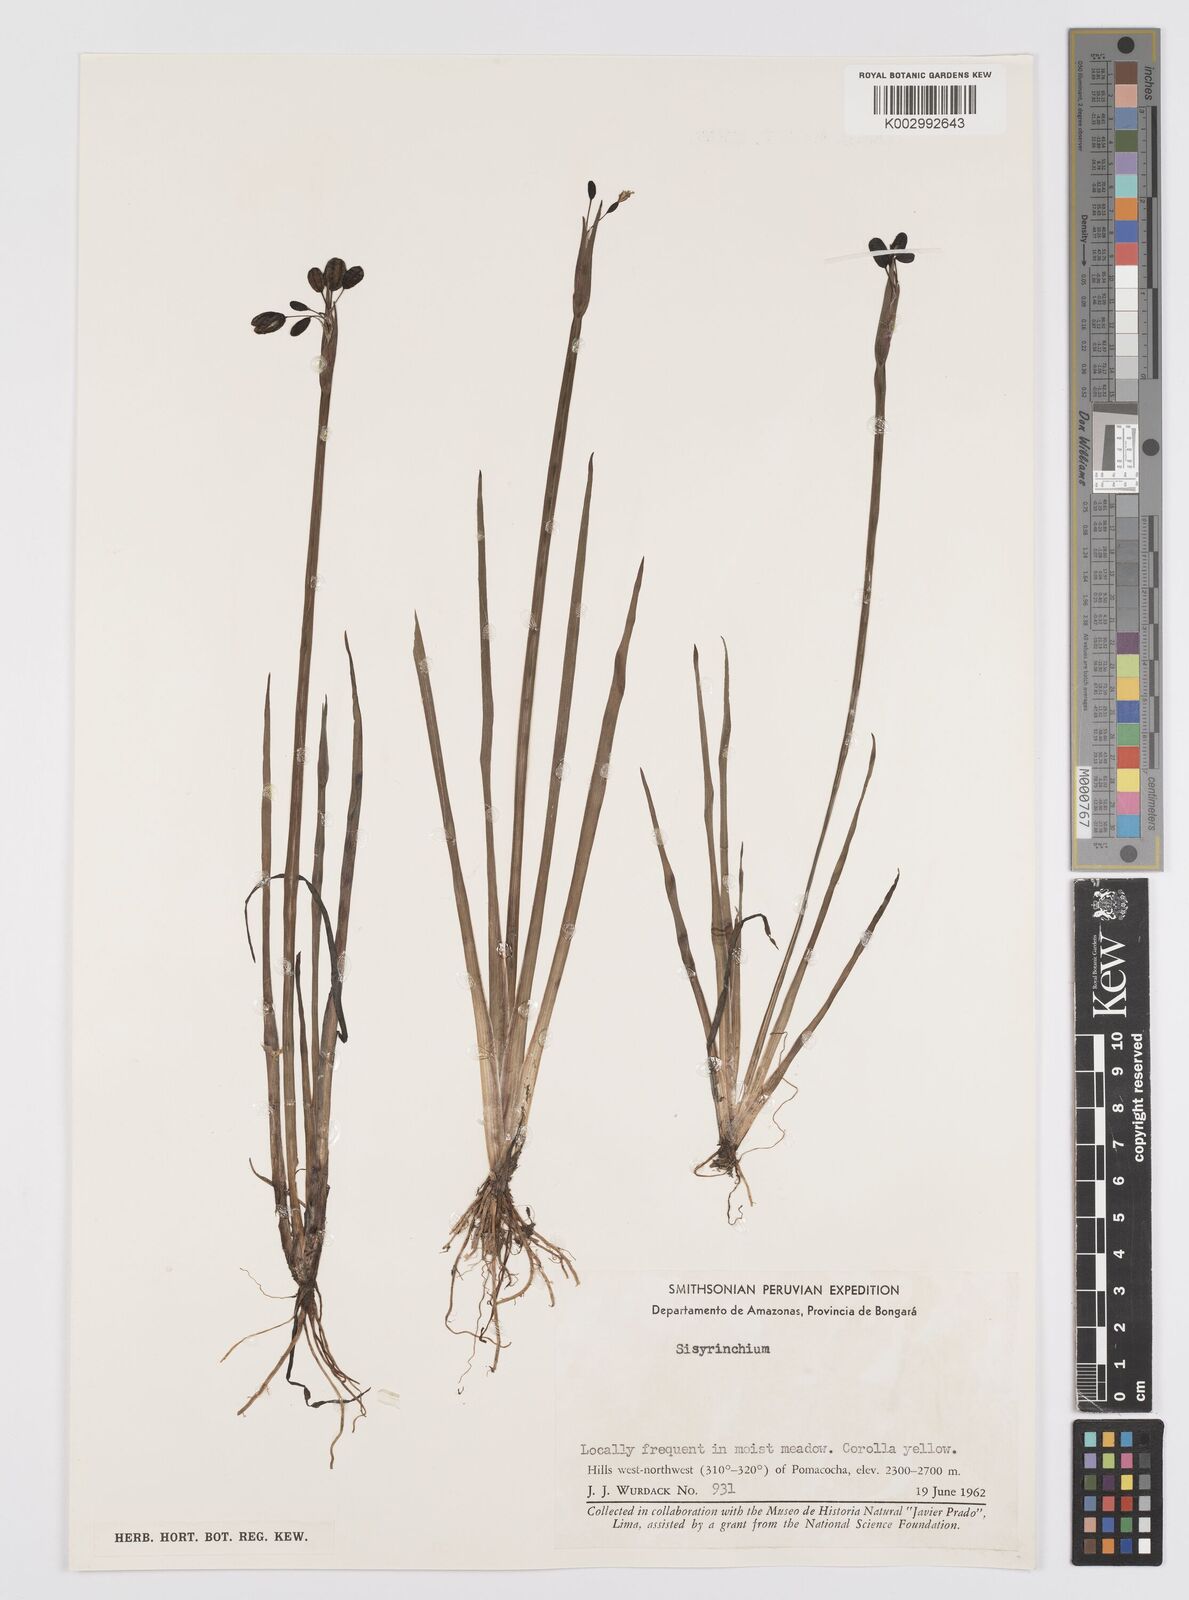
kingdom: Plantae
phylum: Tracheophyta
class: Liliopsida
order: Asparagales
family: Iridaceae
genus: Sisyrinchium
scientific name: Sisyrinchium
